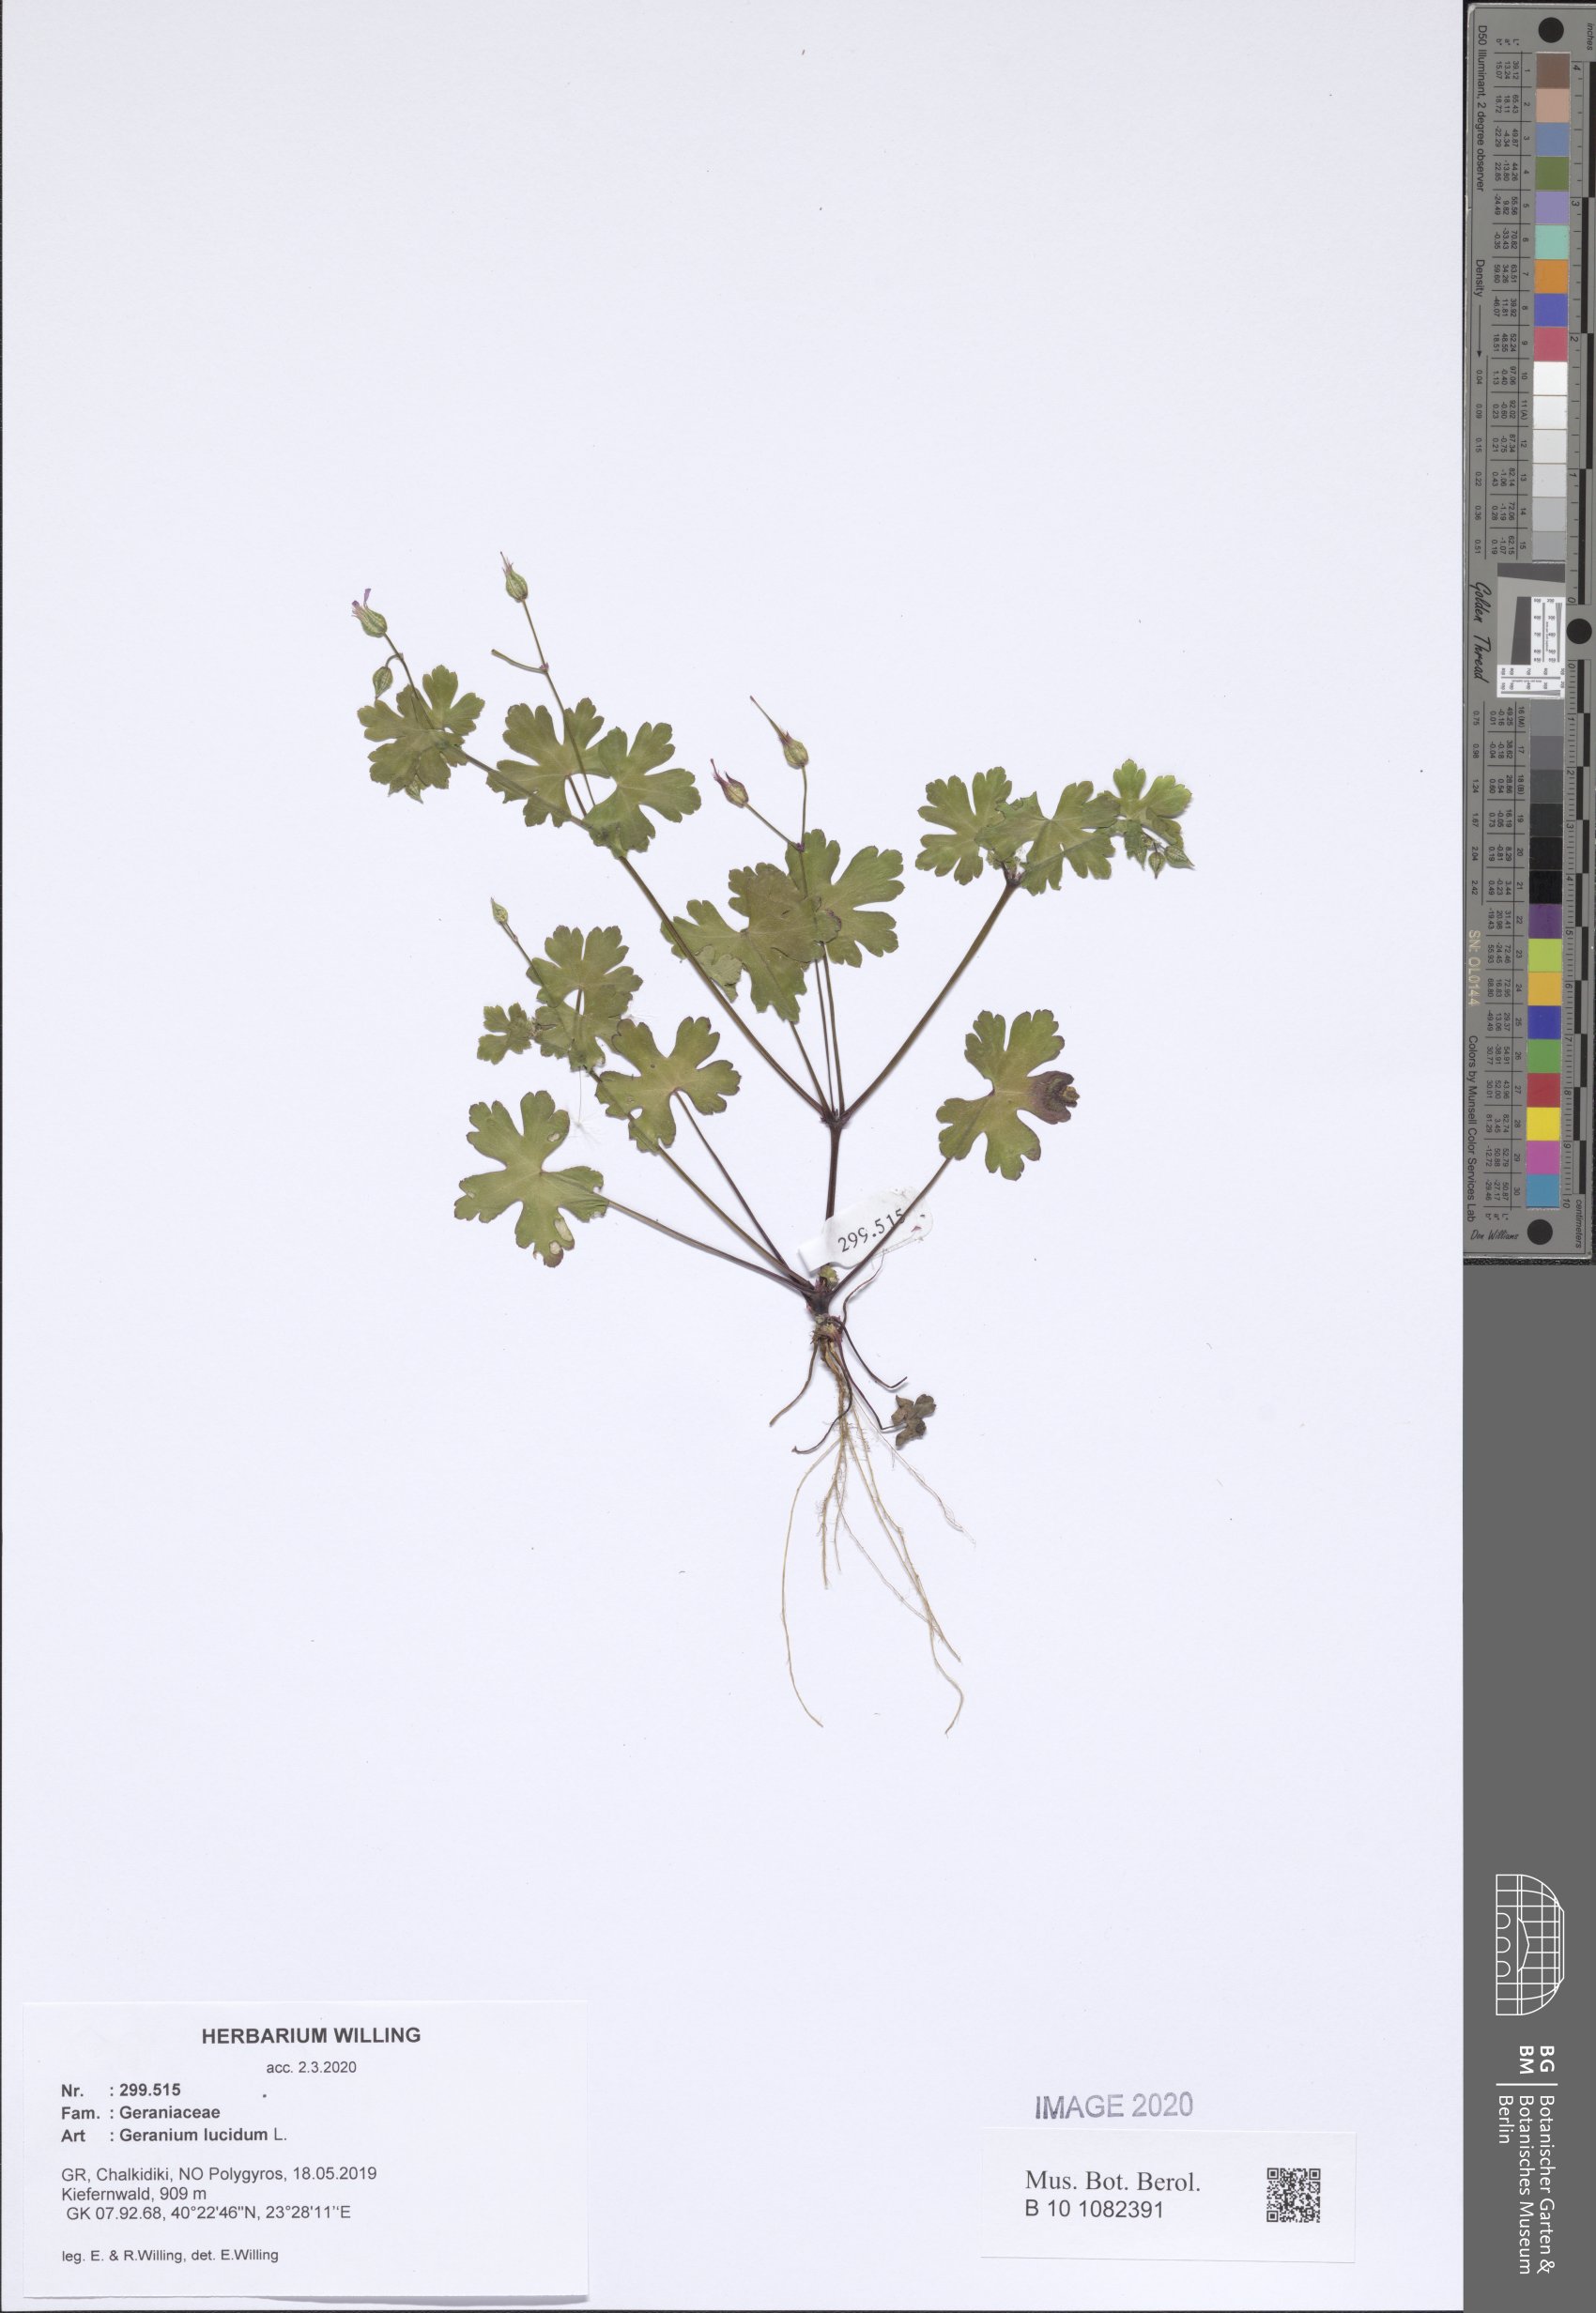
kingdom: Plantae
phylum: Tracheophyta
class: Magnoliopsida
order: Geraniales
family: Geraniaceae
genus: Geranium
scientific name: Geranium lucidum
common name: Shining crane's-bill
